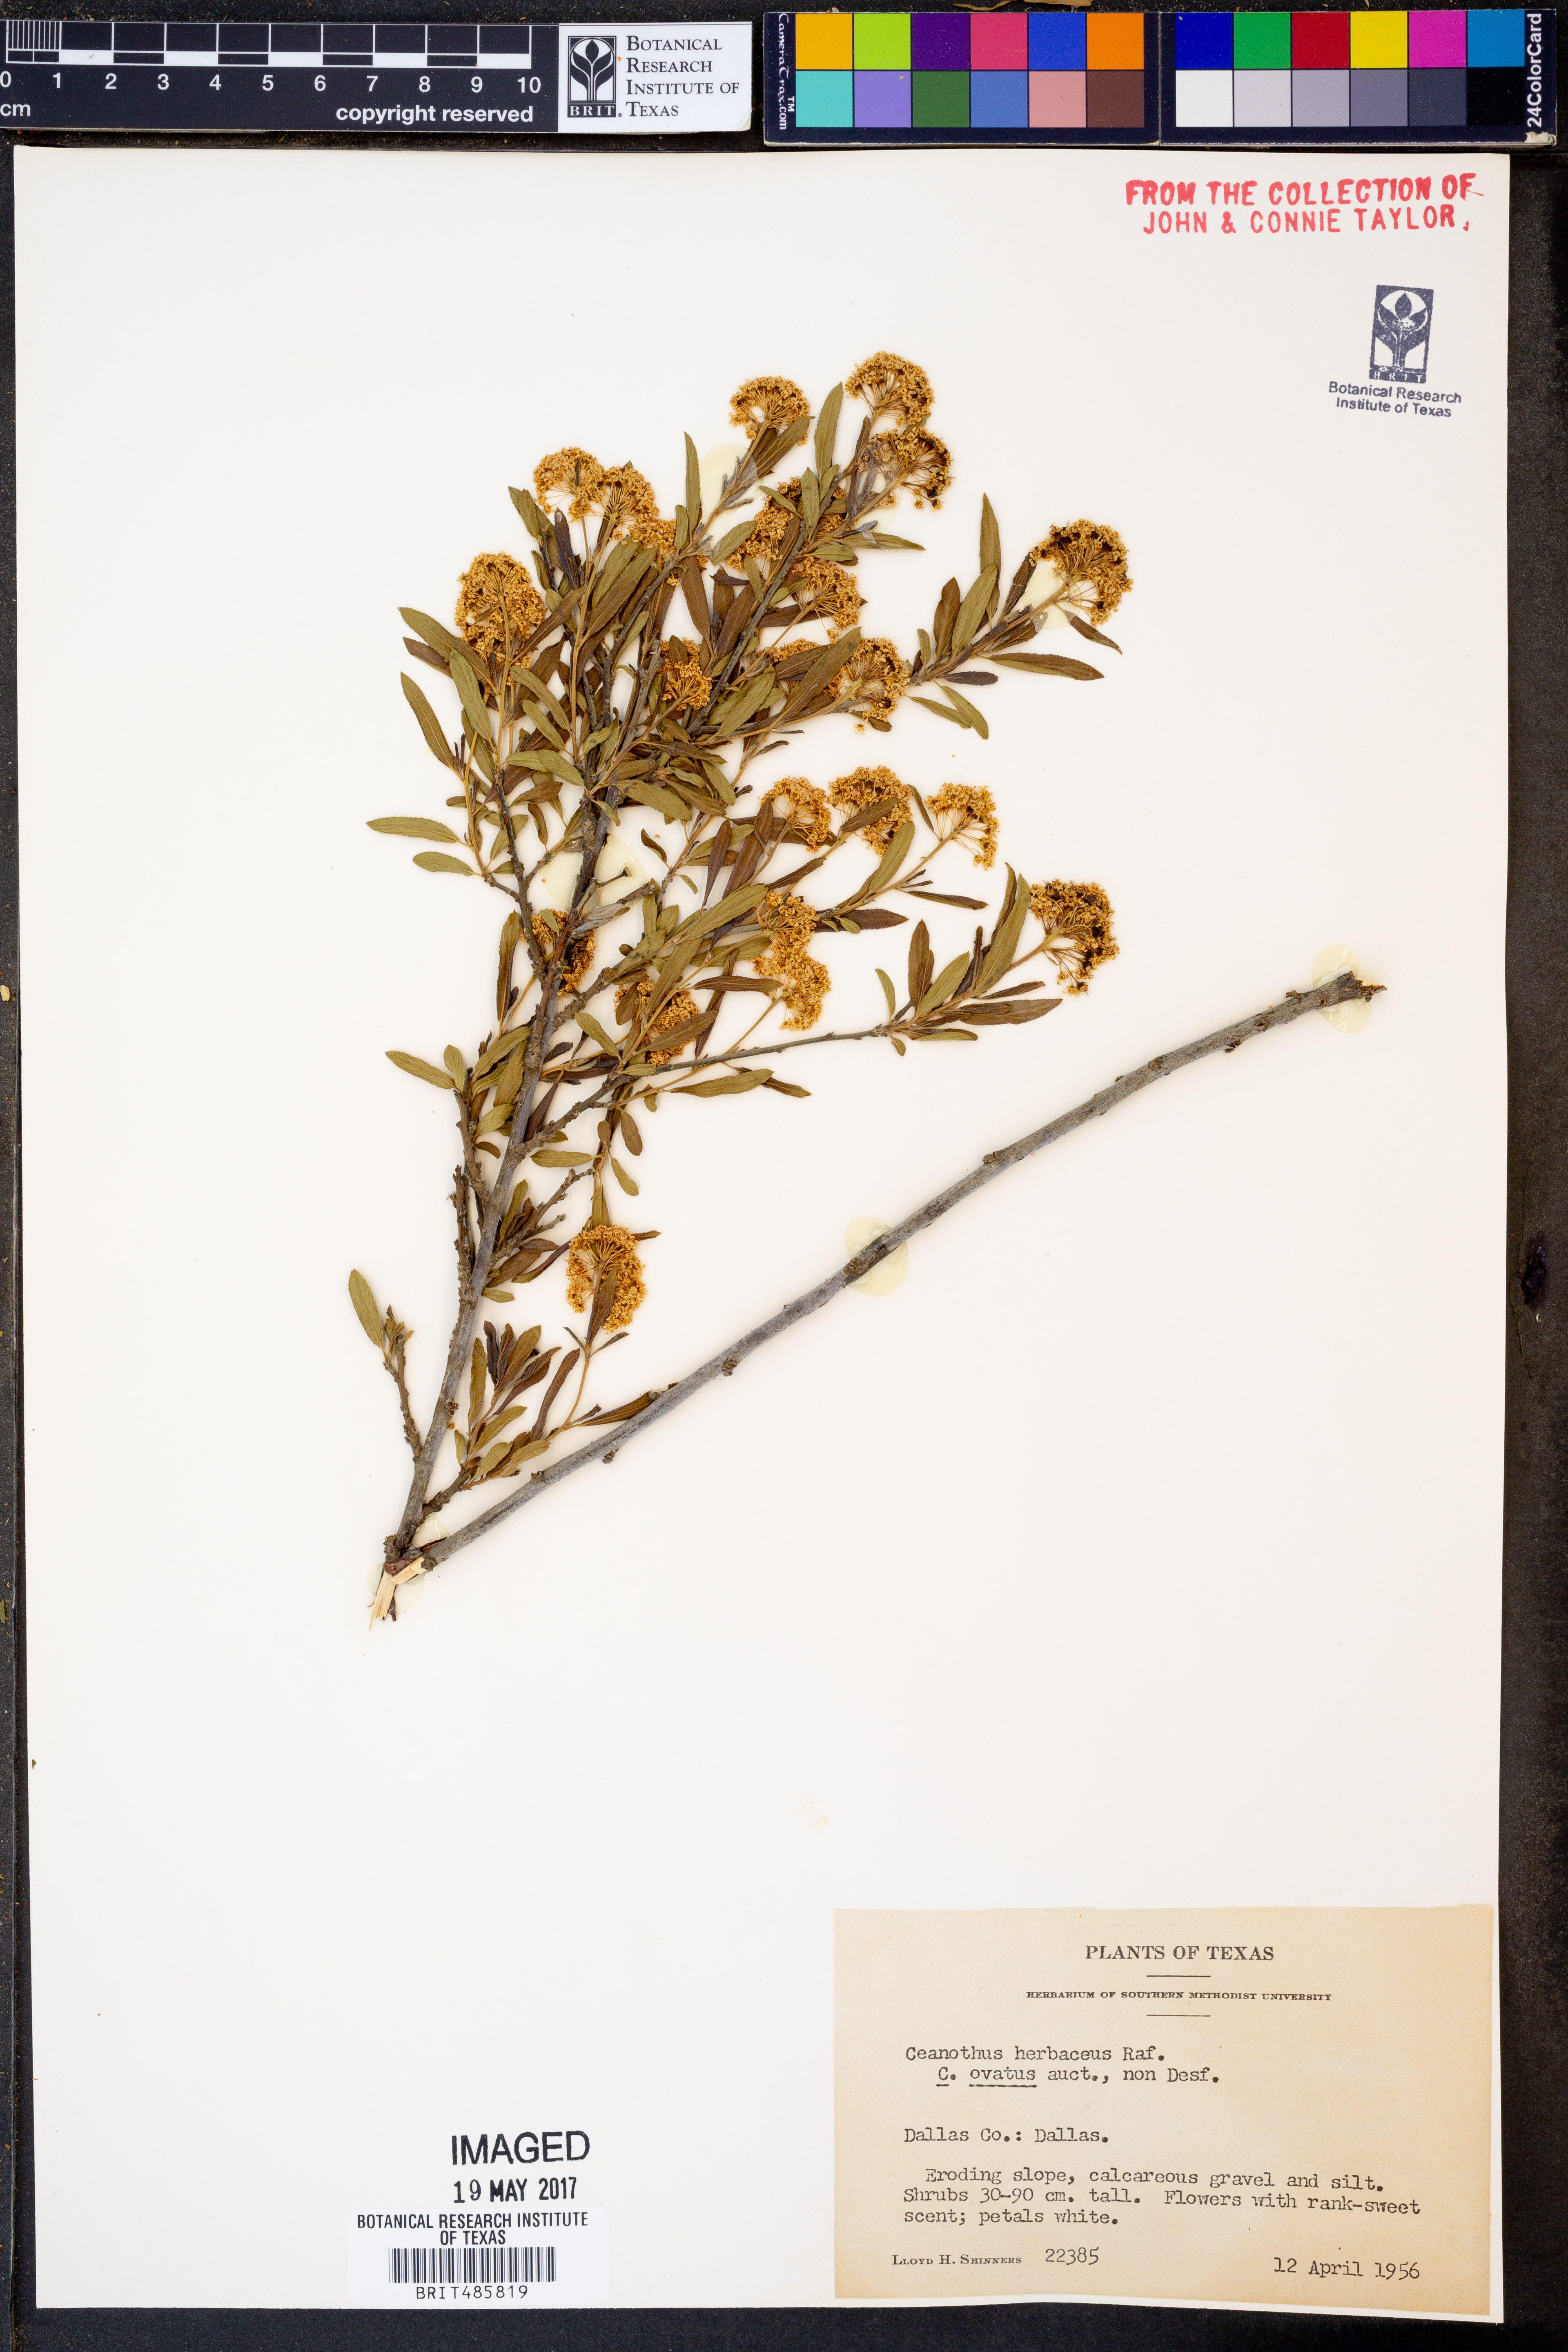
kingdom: Plantae
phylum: Tracheophyta
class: Magnoliopsida
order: Rosales
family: Rhamnaceae
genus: Ceanothus
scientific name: Ceanothus herbaceus
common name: Inland ceanothus
